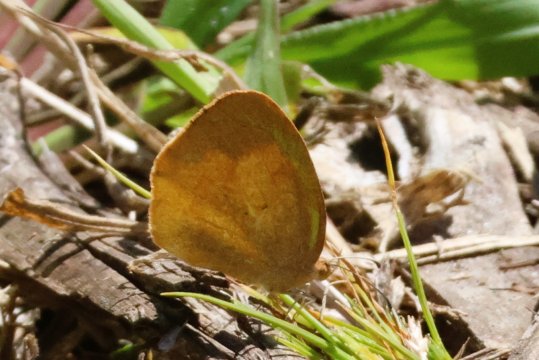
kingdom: Animalia
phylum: Arthropoda
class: Insecta
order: Lepidoptera
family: Pieridae
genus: Eurema
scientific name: Eurema daira
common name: Barred Yellow
